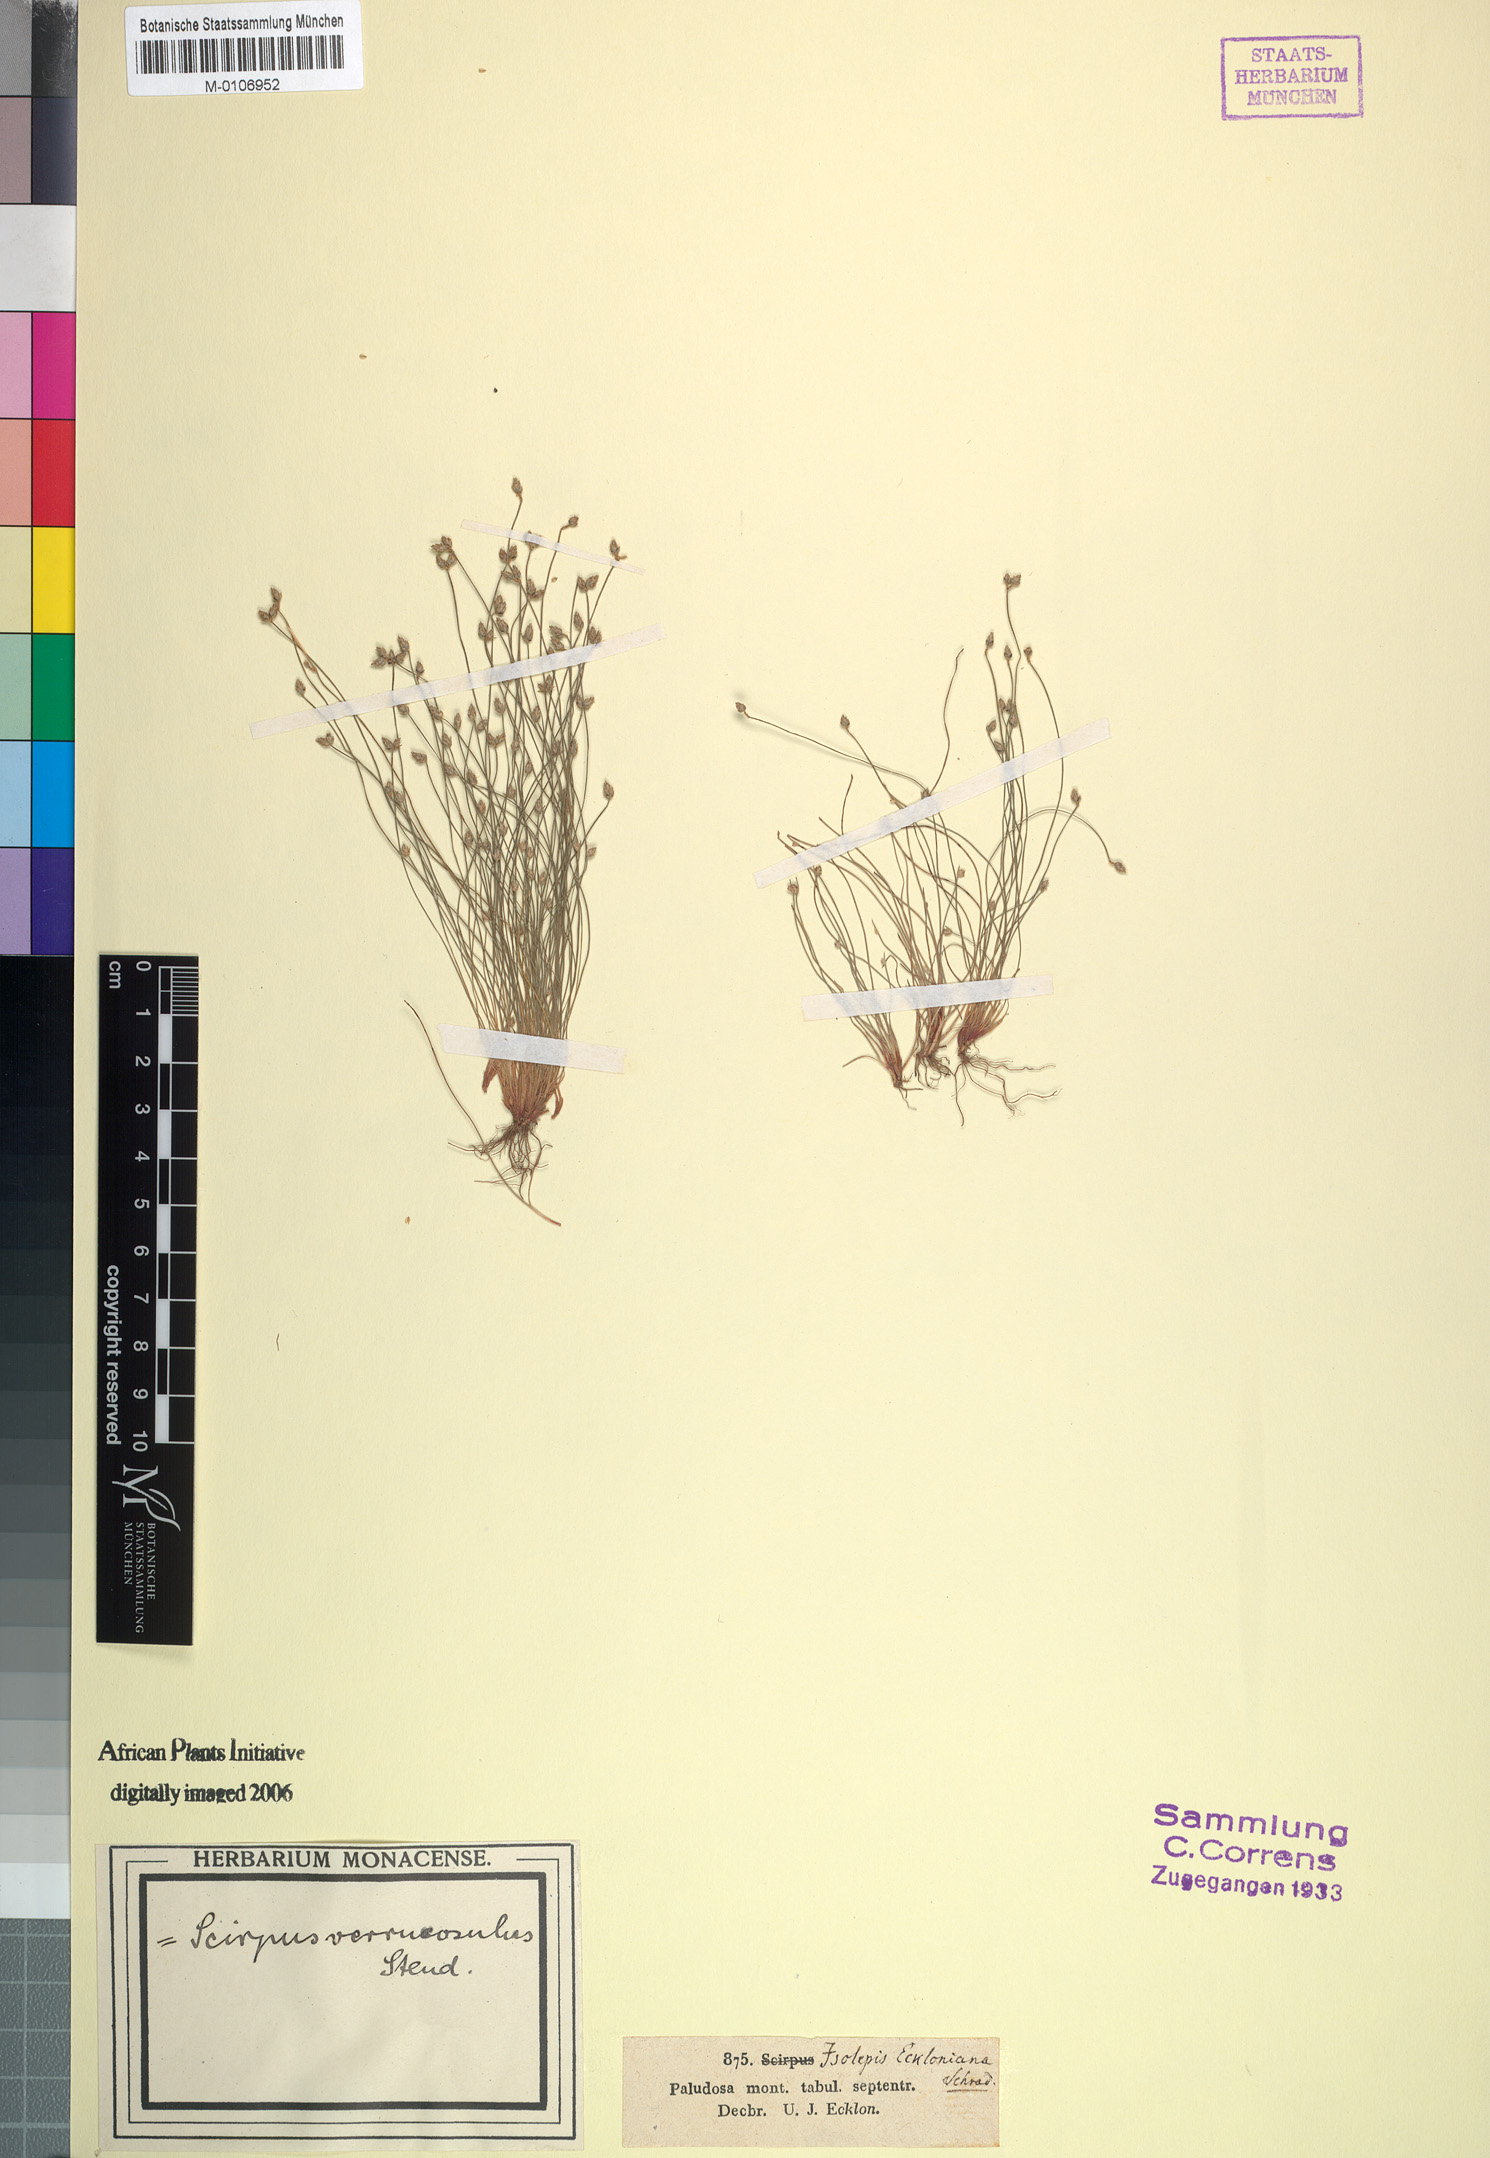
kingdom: Plantae
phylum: Tracheophyta
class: Liliopsida
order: Poales
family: Cyperaceae
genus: Isolepis
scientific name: Isolepis cernua
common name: Slender club-rush
